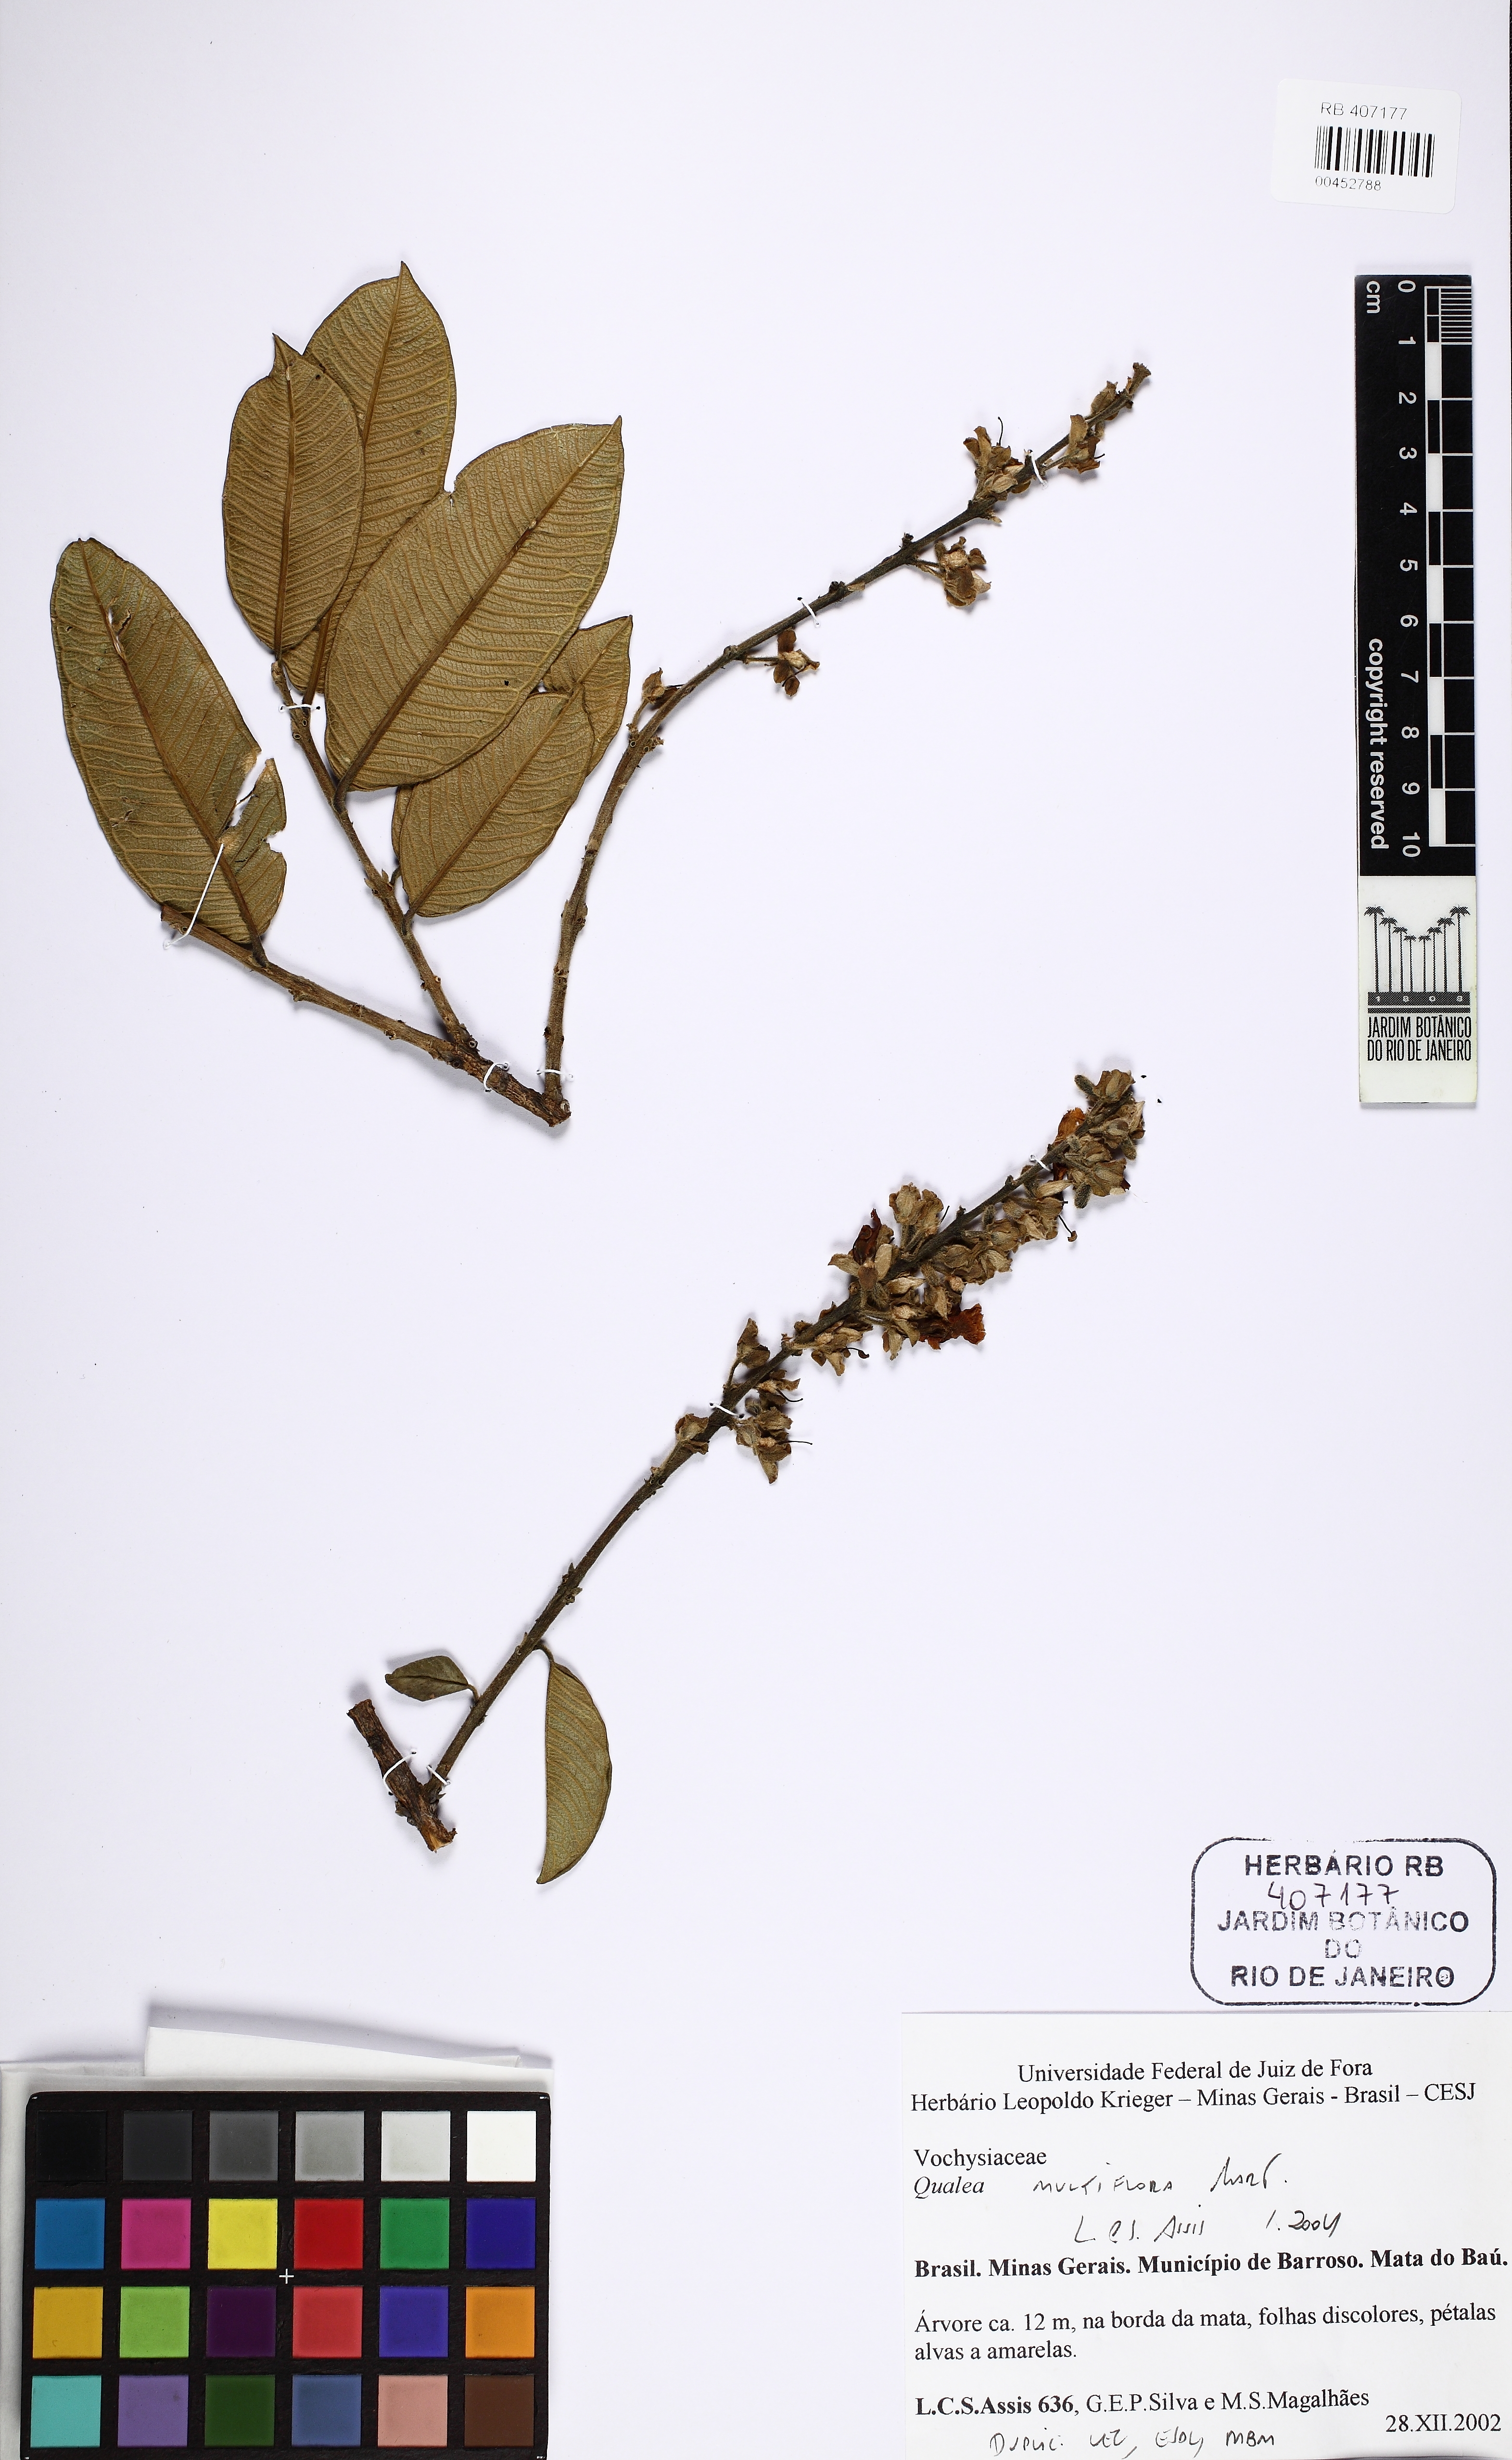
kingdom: Plantae
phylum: Tracheophyta
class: Magnoliopsida
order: Myrtales
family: Vochysiaceae
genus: Qualea
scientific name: Qualea multiflora
